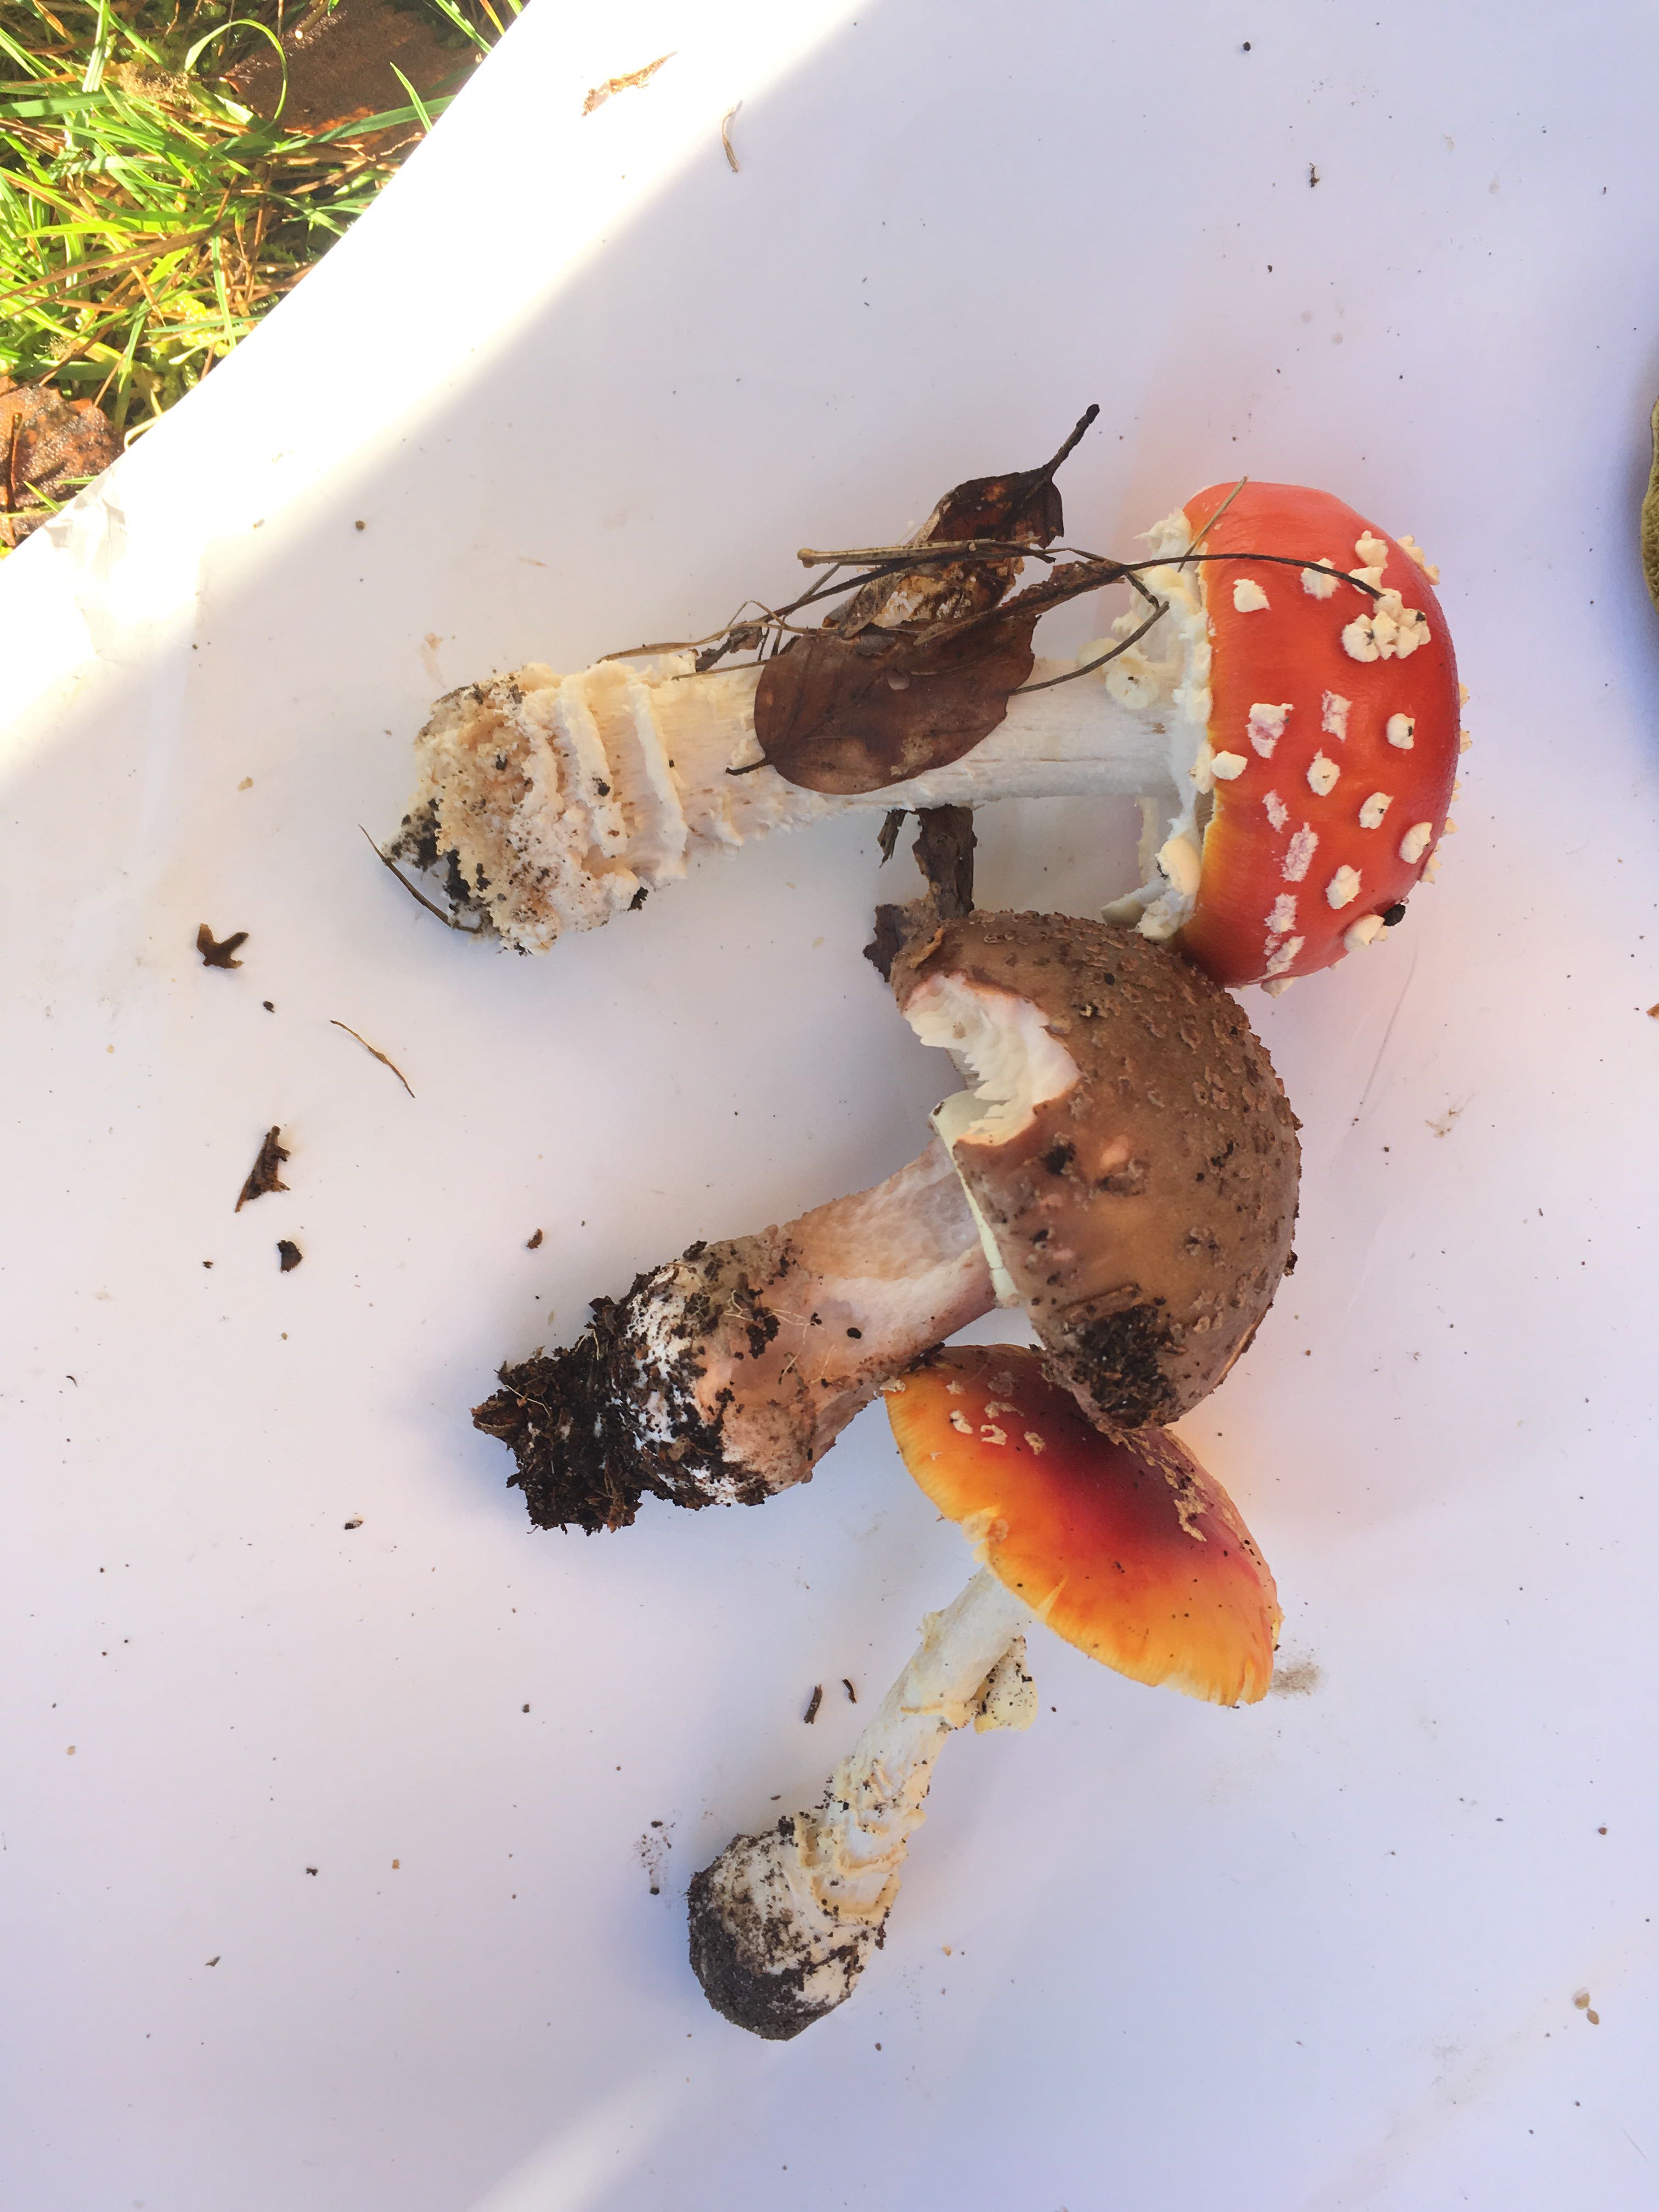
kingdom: Fungi
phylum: Basidiomycota
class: Agaricomycetes
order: Agaricales
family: Amanitaceae
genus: Amanita
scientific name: Amanita muscaria
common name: rød fluesvamp
